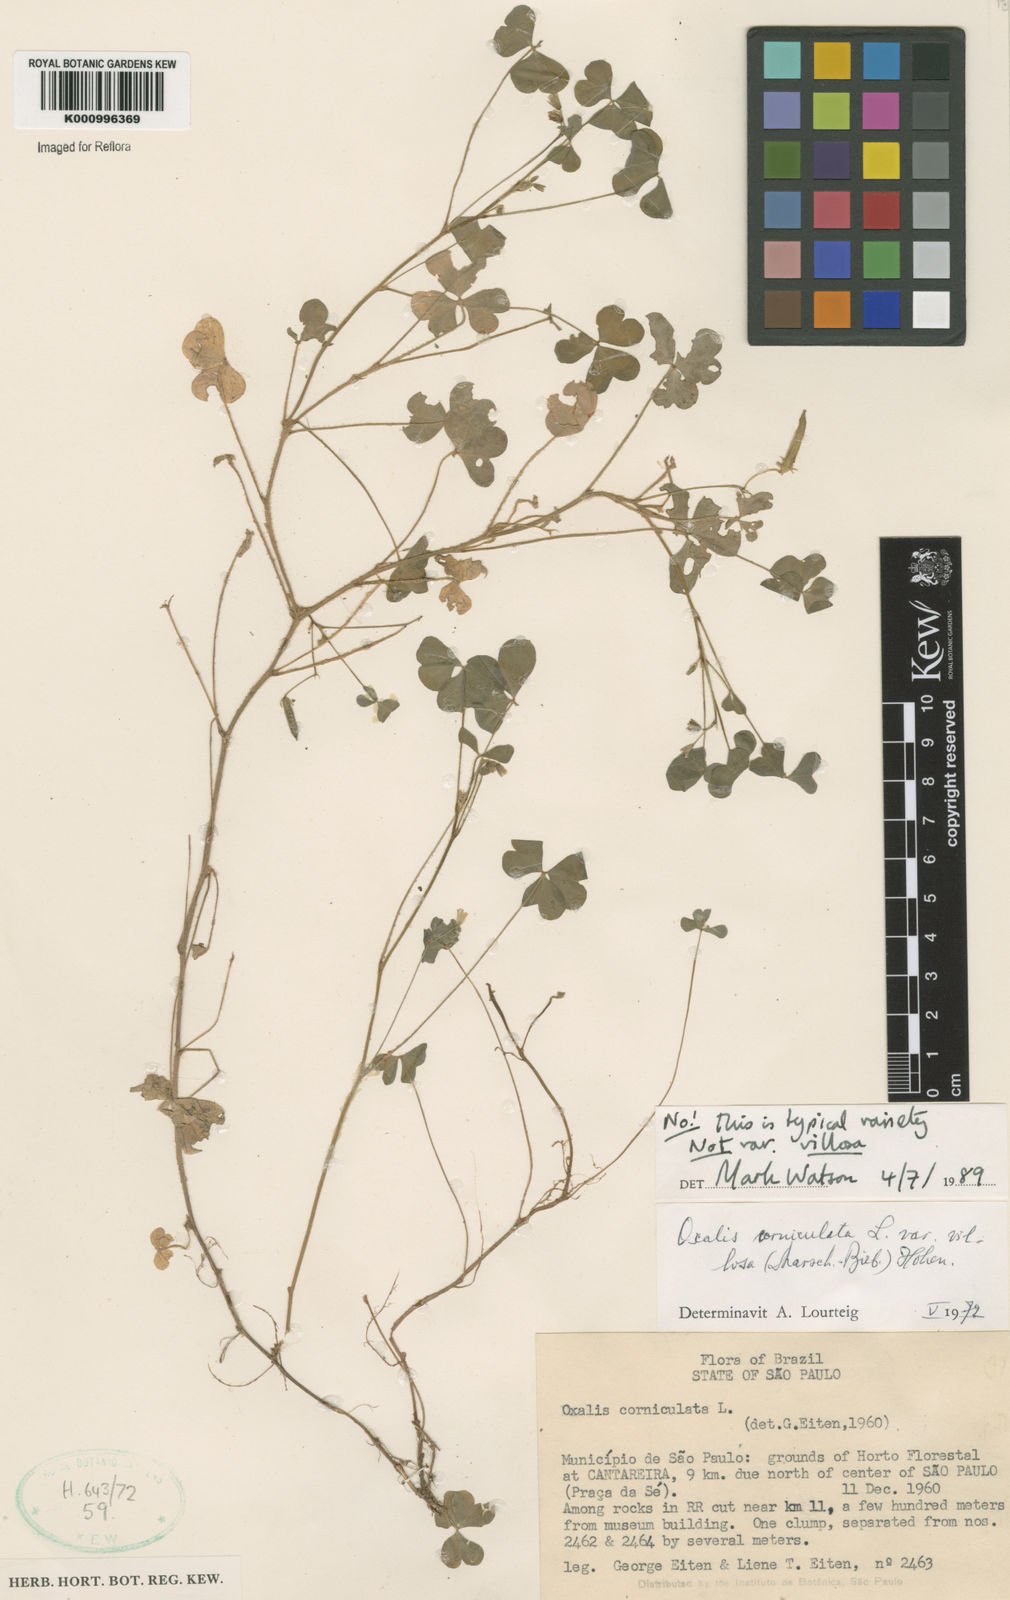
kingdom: Plantae
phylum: Tracheophyta
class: Magnoliopsida
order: Oxalidales
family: Oxalidaceae
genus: Oxalis
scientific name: Oxalis corniculata
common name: Procumbent yellow-sorrel
